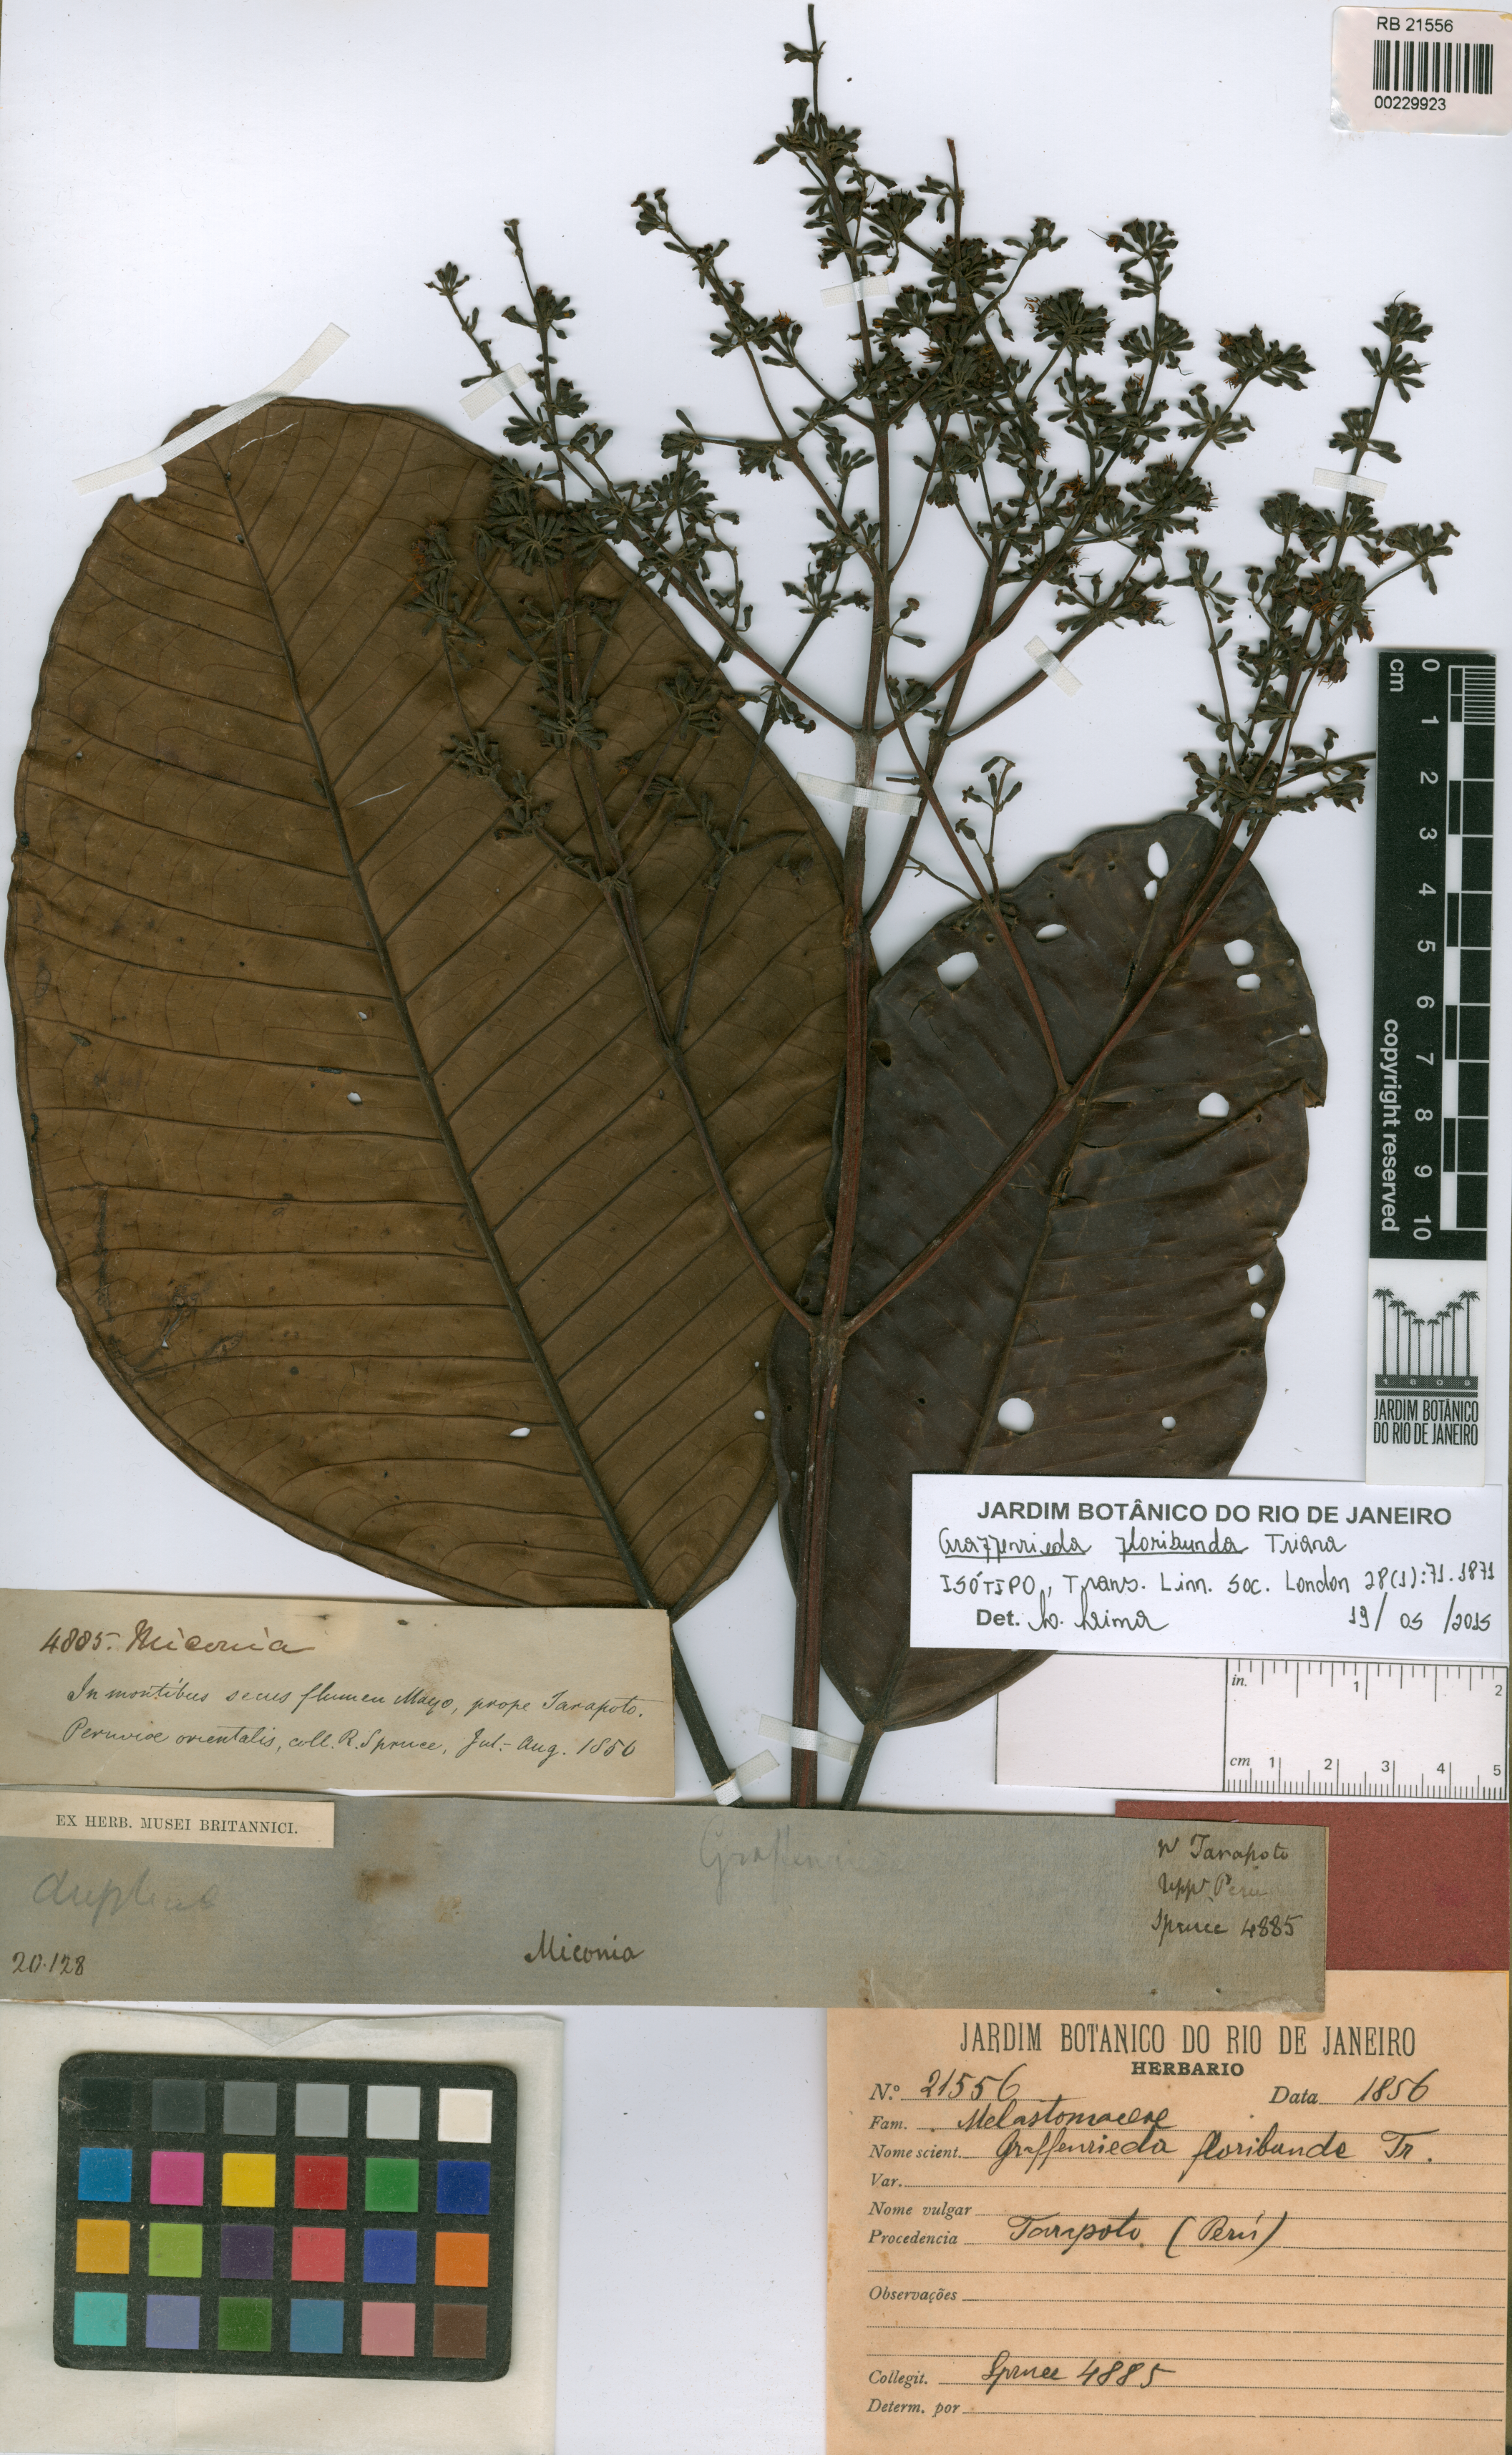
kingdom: Plantae
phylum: Tracheophyta
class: Magnoliopsida
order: Myrtales
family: Melastomataceae
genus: Graffenrieda
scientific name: Graffenrieda miconioides
